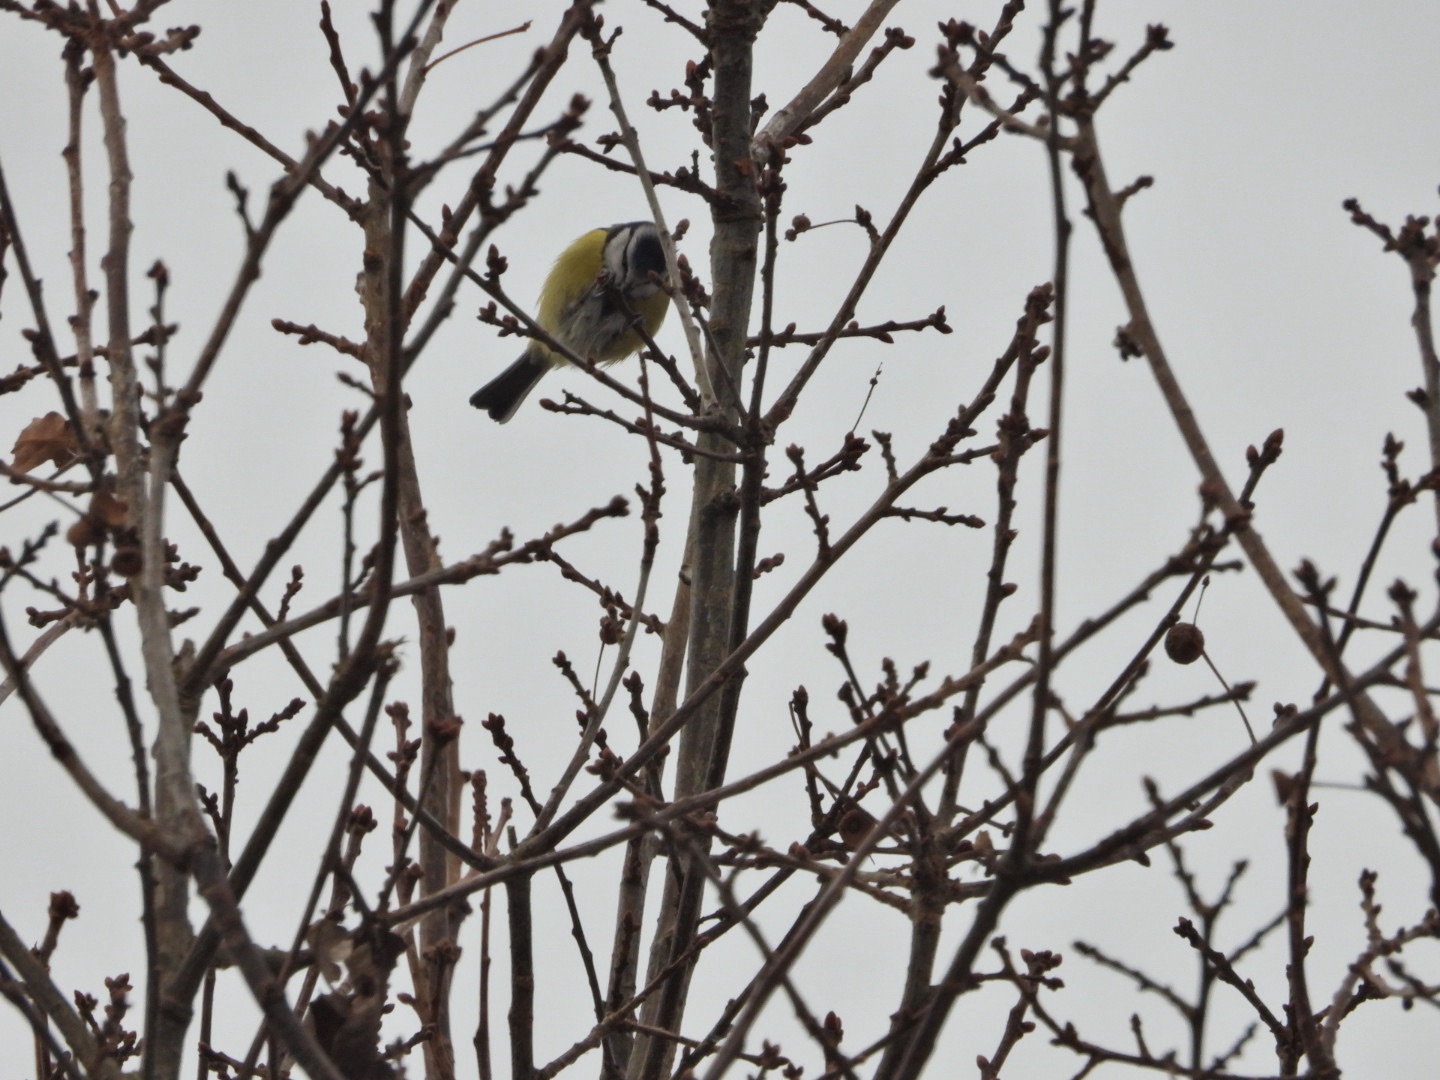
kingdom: Animalia
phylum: Chordata
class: Aves
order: Passeriformes
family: Paridae
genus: Cyanistes
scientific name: Cyanistes caeruleus
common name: Blåmejse
